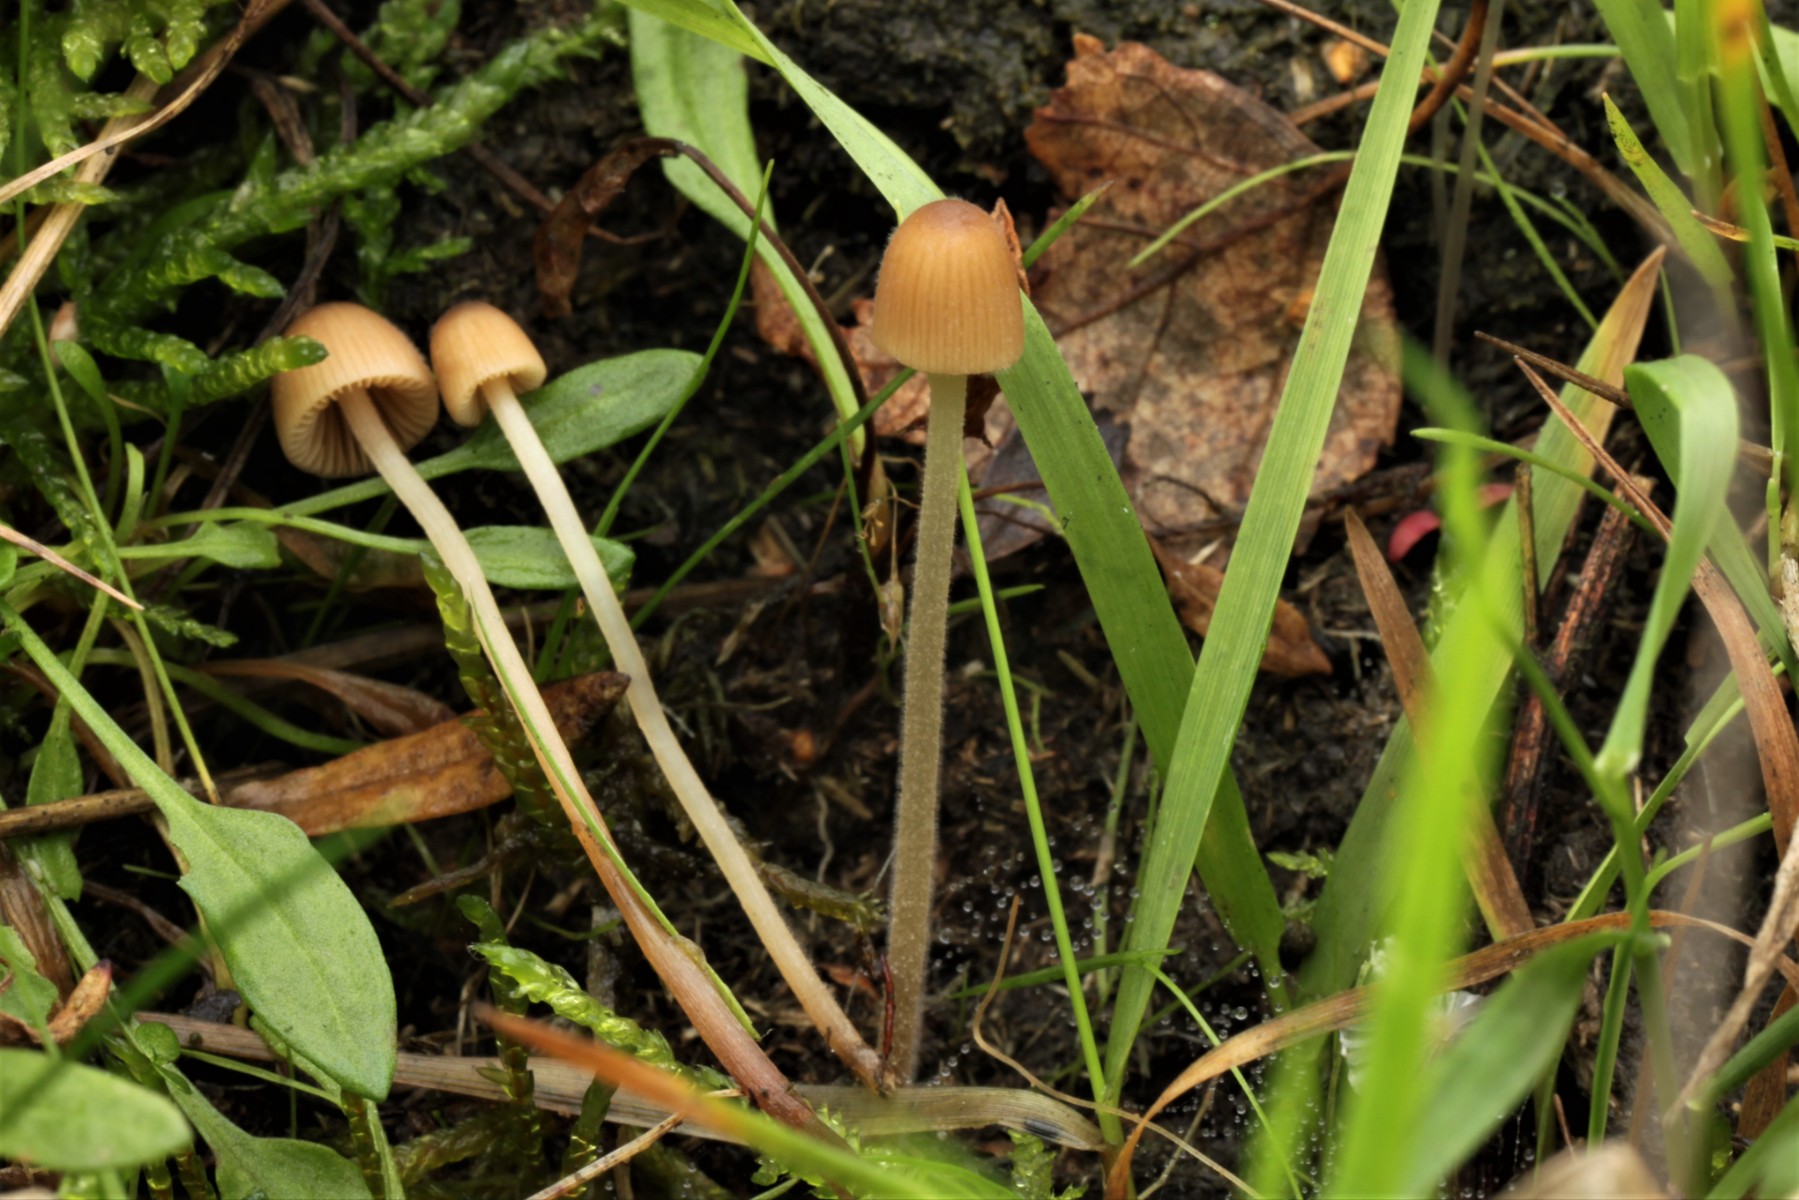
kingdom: Fungi
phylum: Basidiomycota
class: Agaricomycetes
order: Agaricales
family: Bolbitiaceae
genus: Conocybe
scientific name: Conocybe
